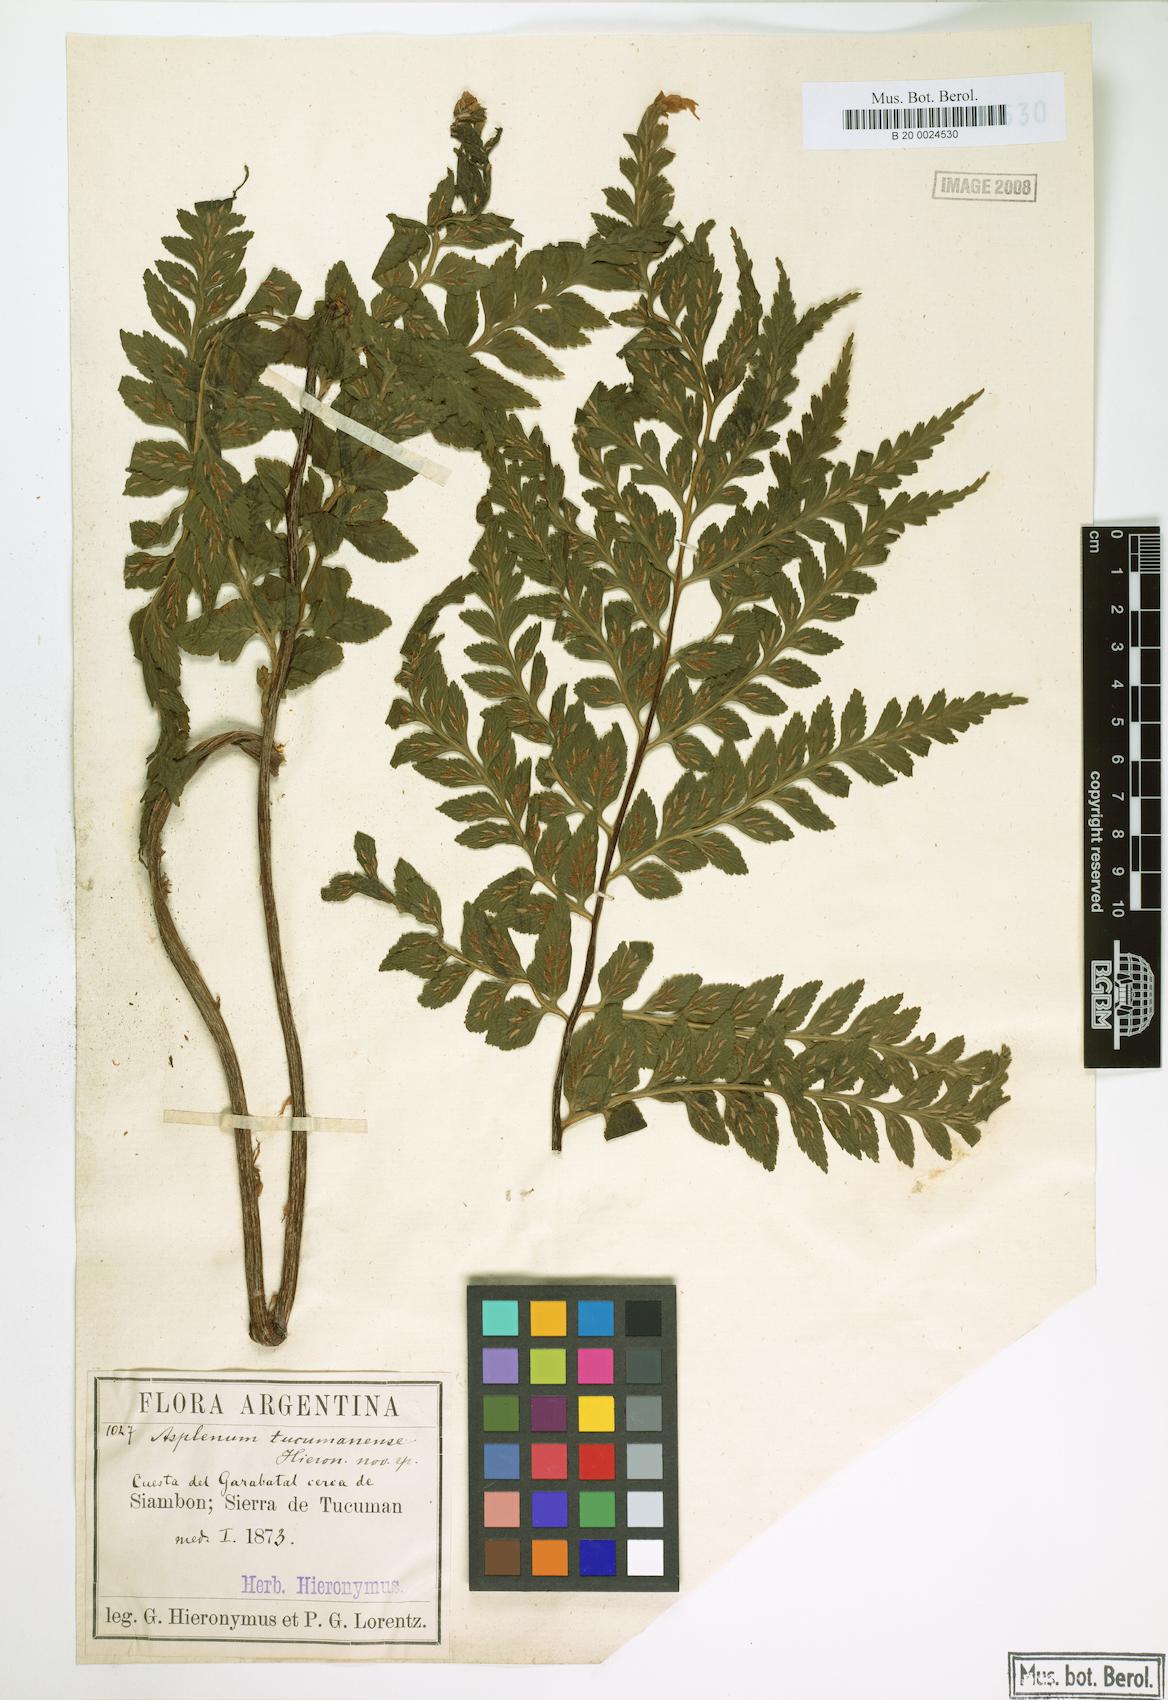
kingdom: Plantae
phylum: Tracheophyta
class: Polypodiopsida
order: Polypodiales
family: Aspleniaceae
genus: Asplenium
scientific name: Asplenium squamosum
